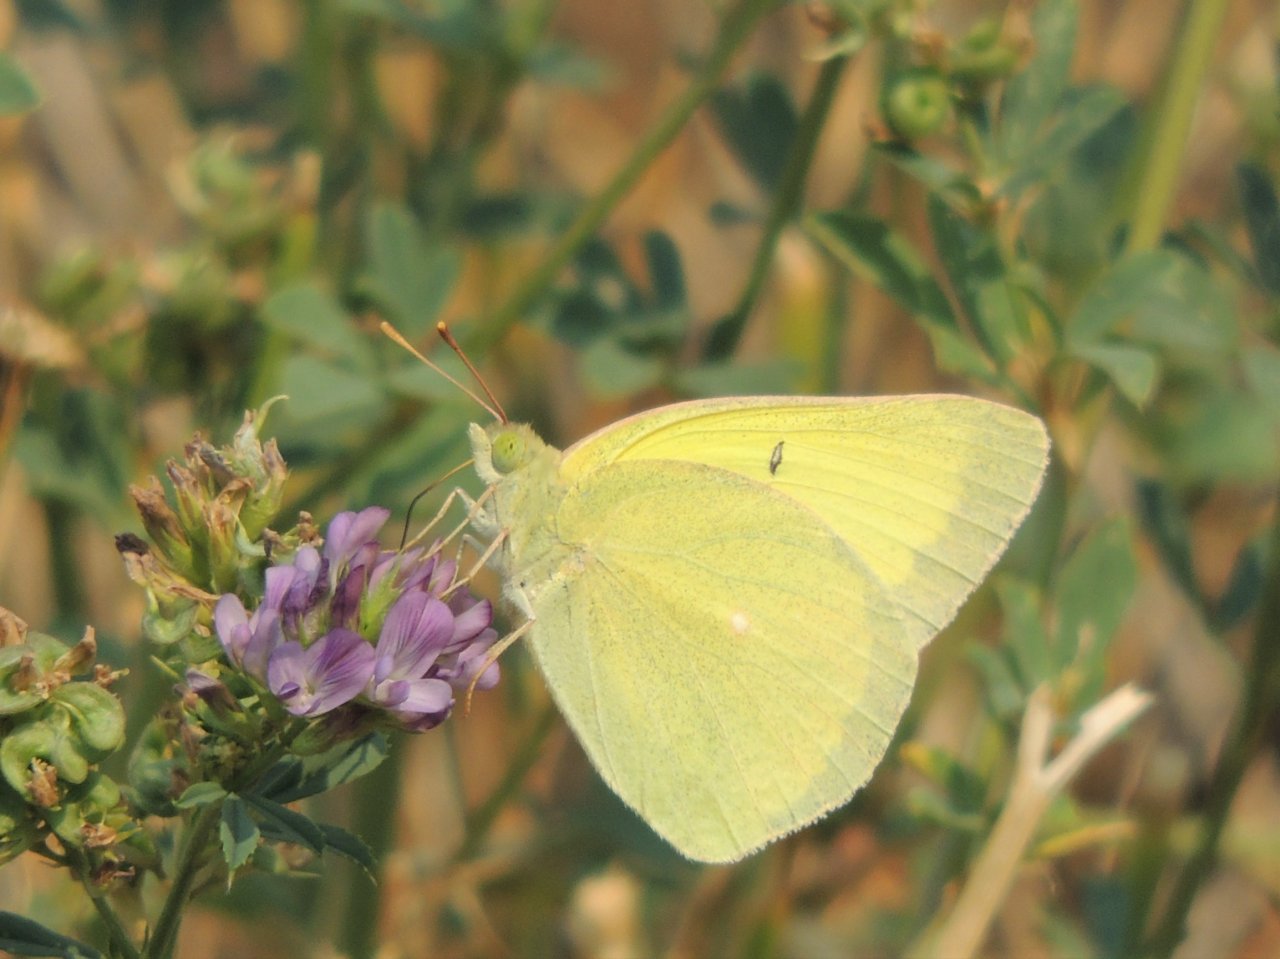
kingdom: Animalia
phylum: Arthropoda
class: Insecta
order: Lepidoptera
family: Pieridae
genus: Colias
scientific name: Colias alexandra
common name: Queen Alexandra's Sulphur
